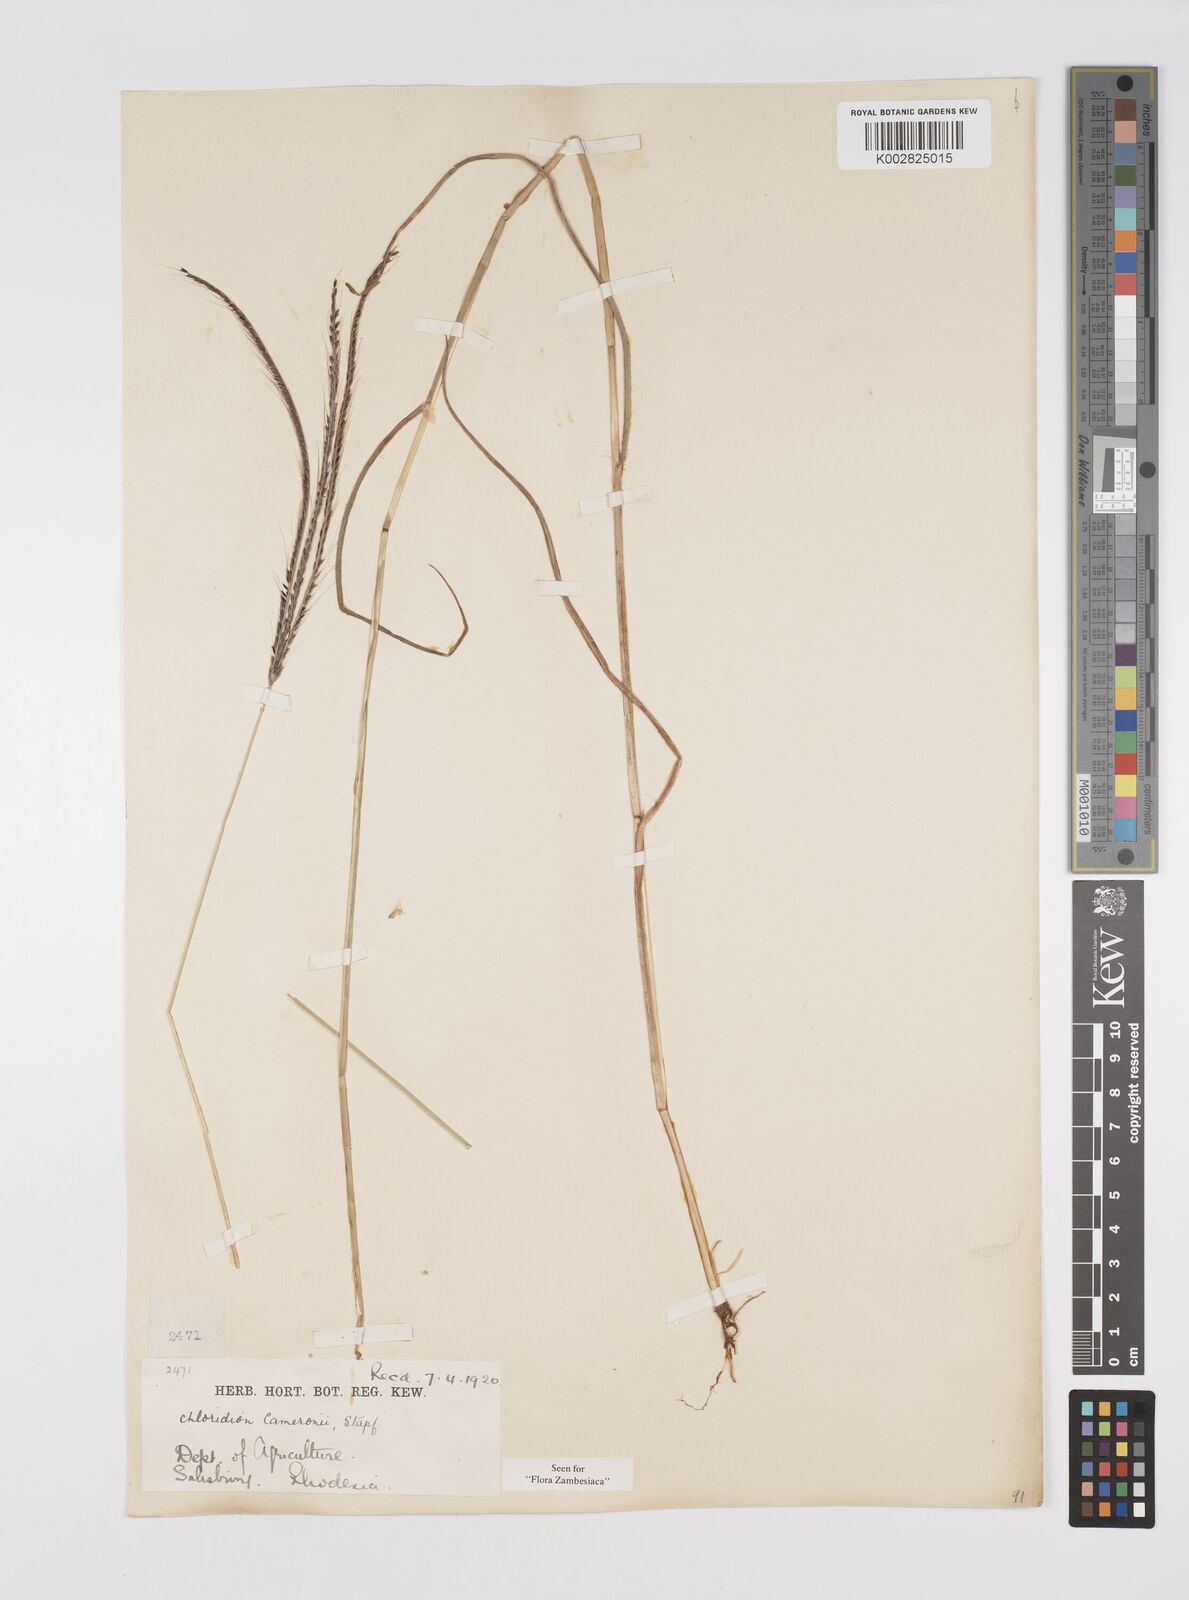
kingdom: Plantae
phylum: Tracheophyta
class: Liliopsida
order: Poales
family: Poaceae
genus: Stereochlaena
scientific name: Stereochlaena cameronii
